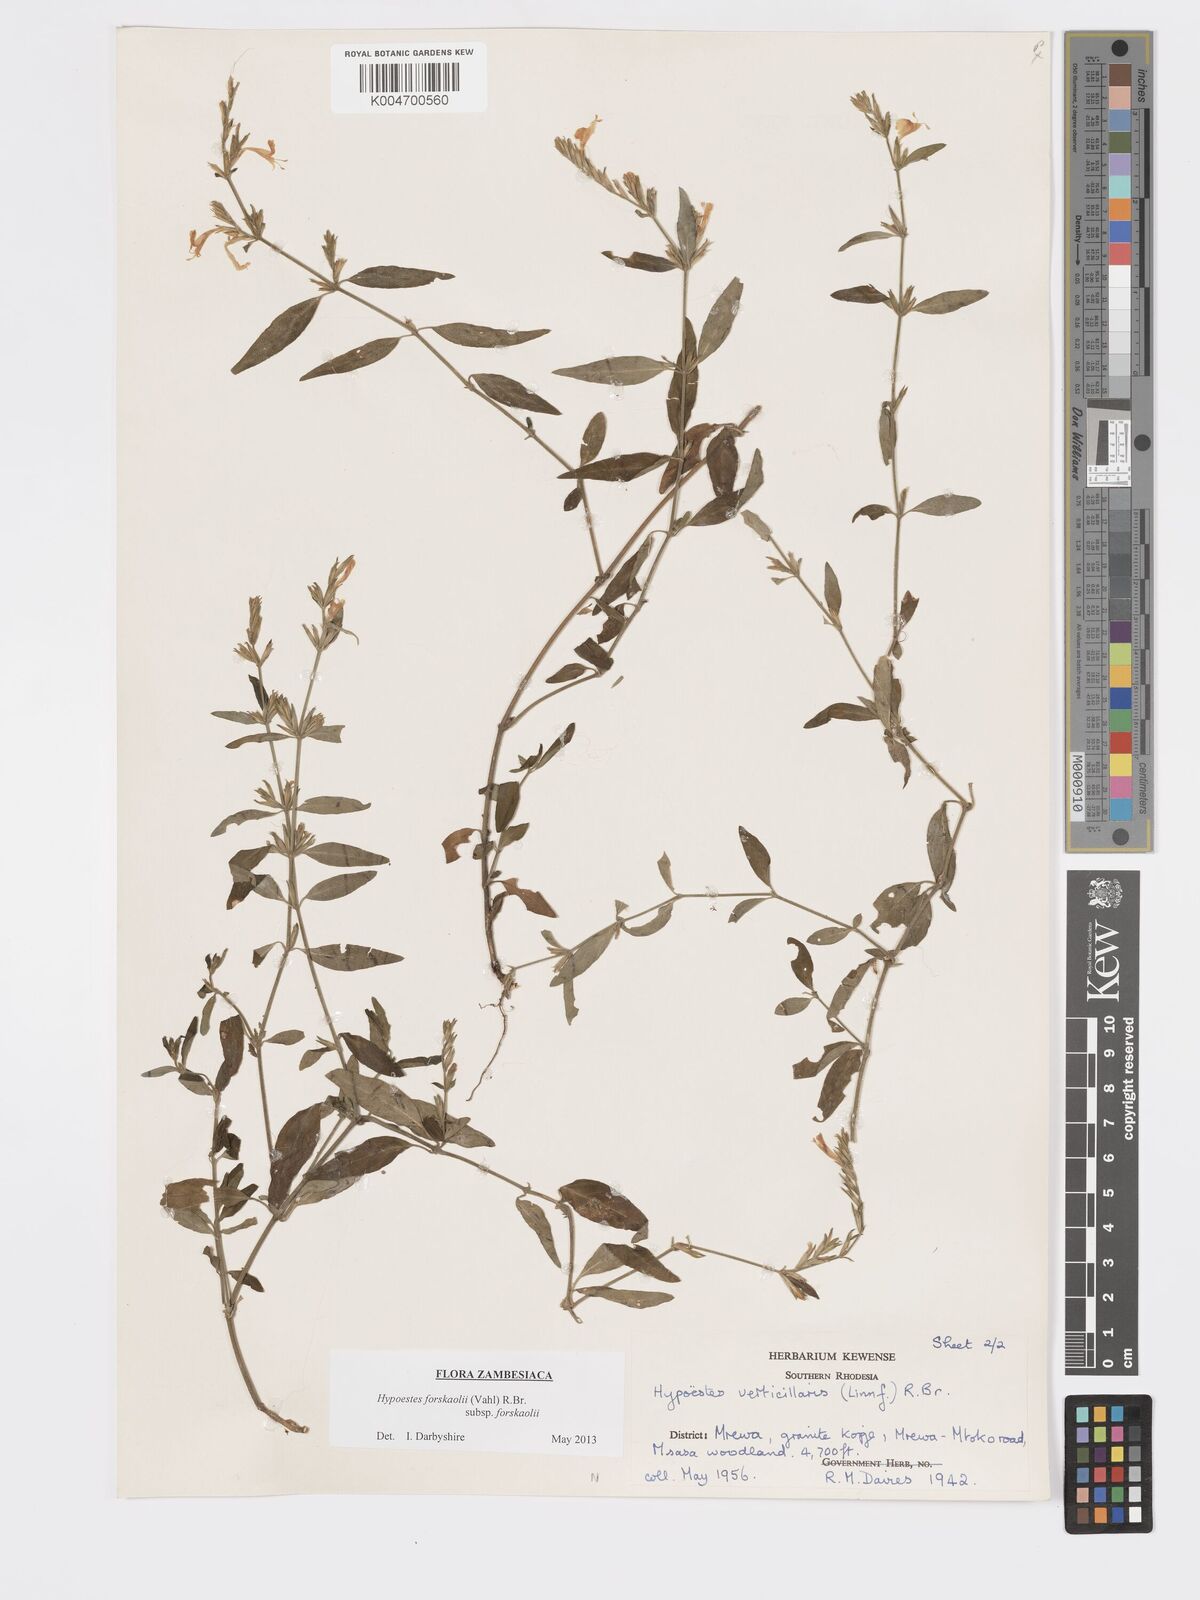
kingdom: Plantae
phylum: Tracheophyta
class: Magnoliopsida
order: Lamiales
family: Acanthaceae
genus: Hypoestes
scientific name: Hypoestes forskaolii
